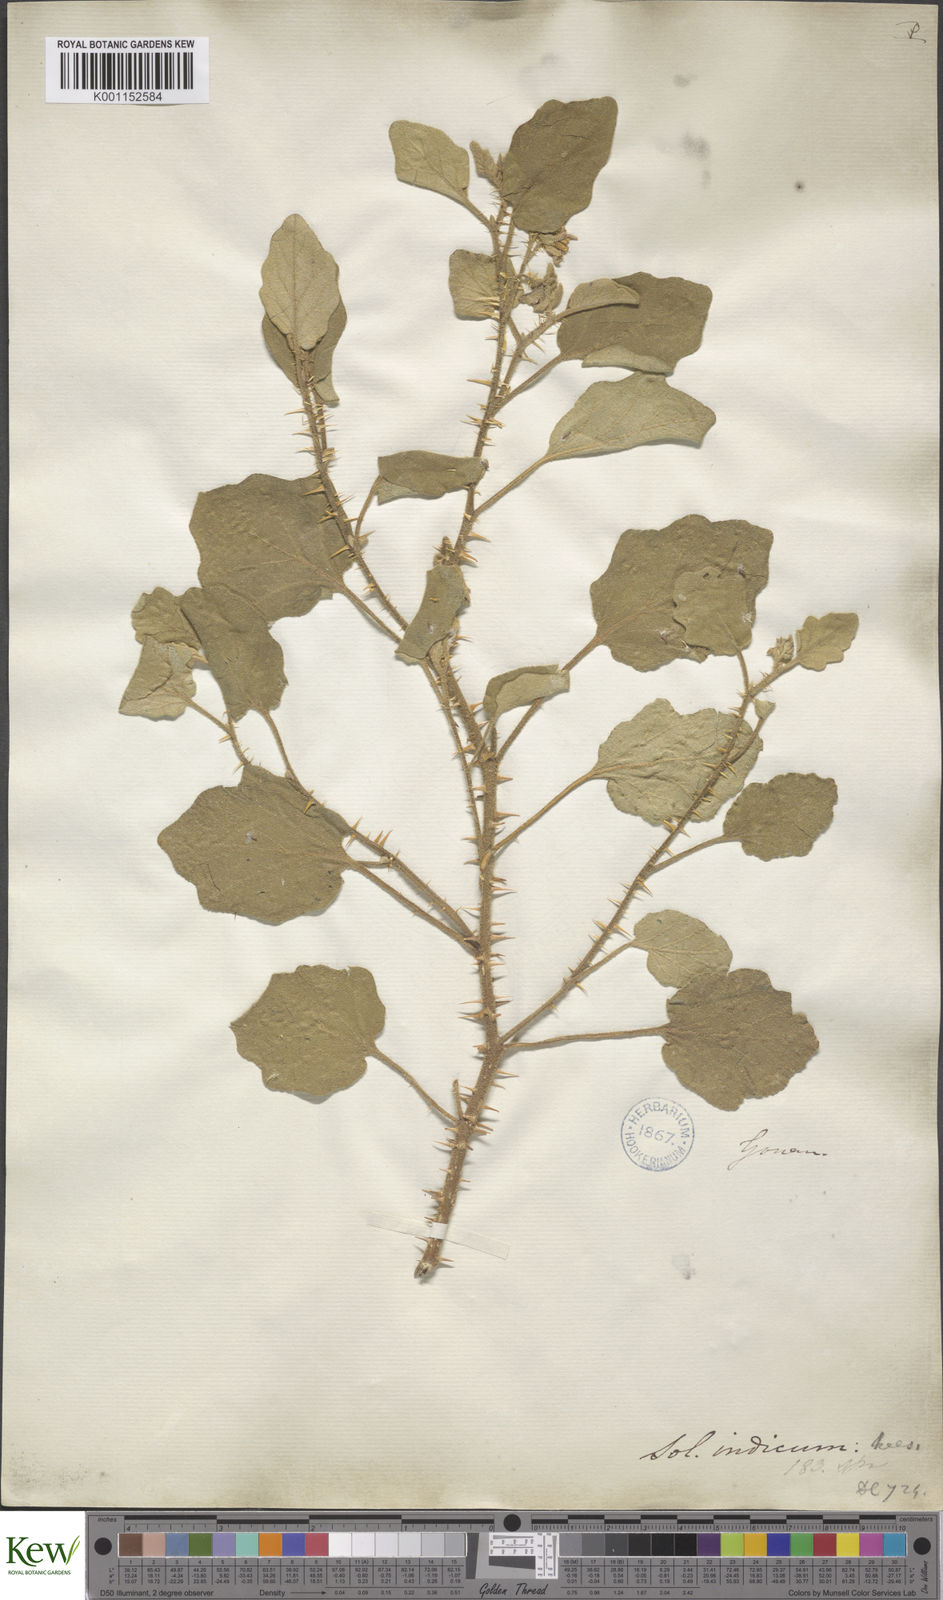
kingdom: Plantae
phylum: Tracheophyta
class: Magnoliopsida
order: Solanales
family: Solanaceae
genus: Solanum
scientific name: Solanum insanum
